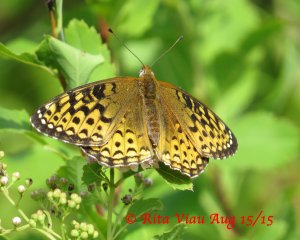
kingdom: Animalia
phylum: Arthropoda
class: Insecta
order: Lepidoptera
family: Nymphalidae
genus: Speyeria
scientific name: Speyeria atlantis
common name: Atlantis Fritillary
